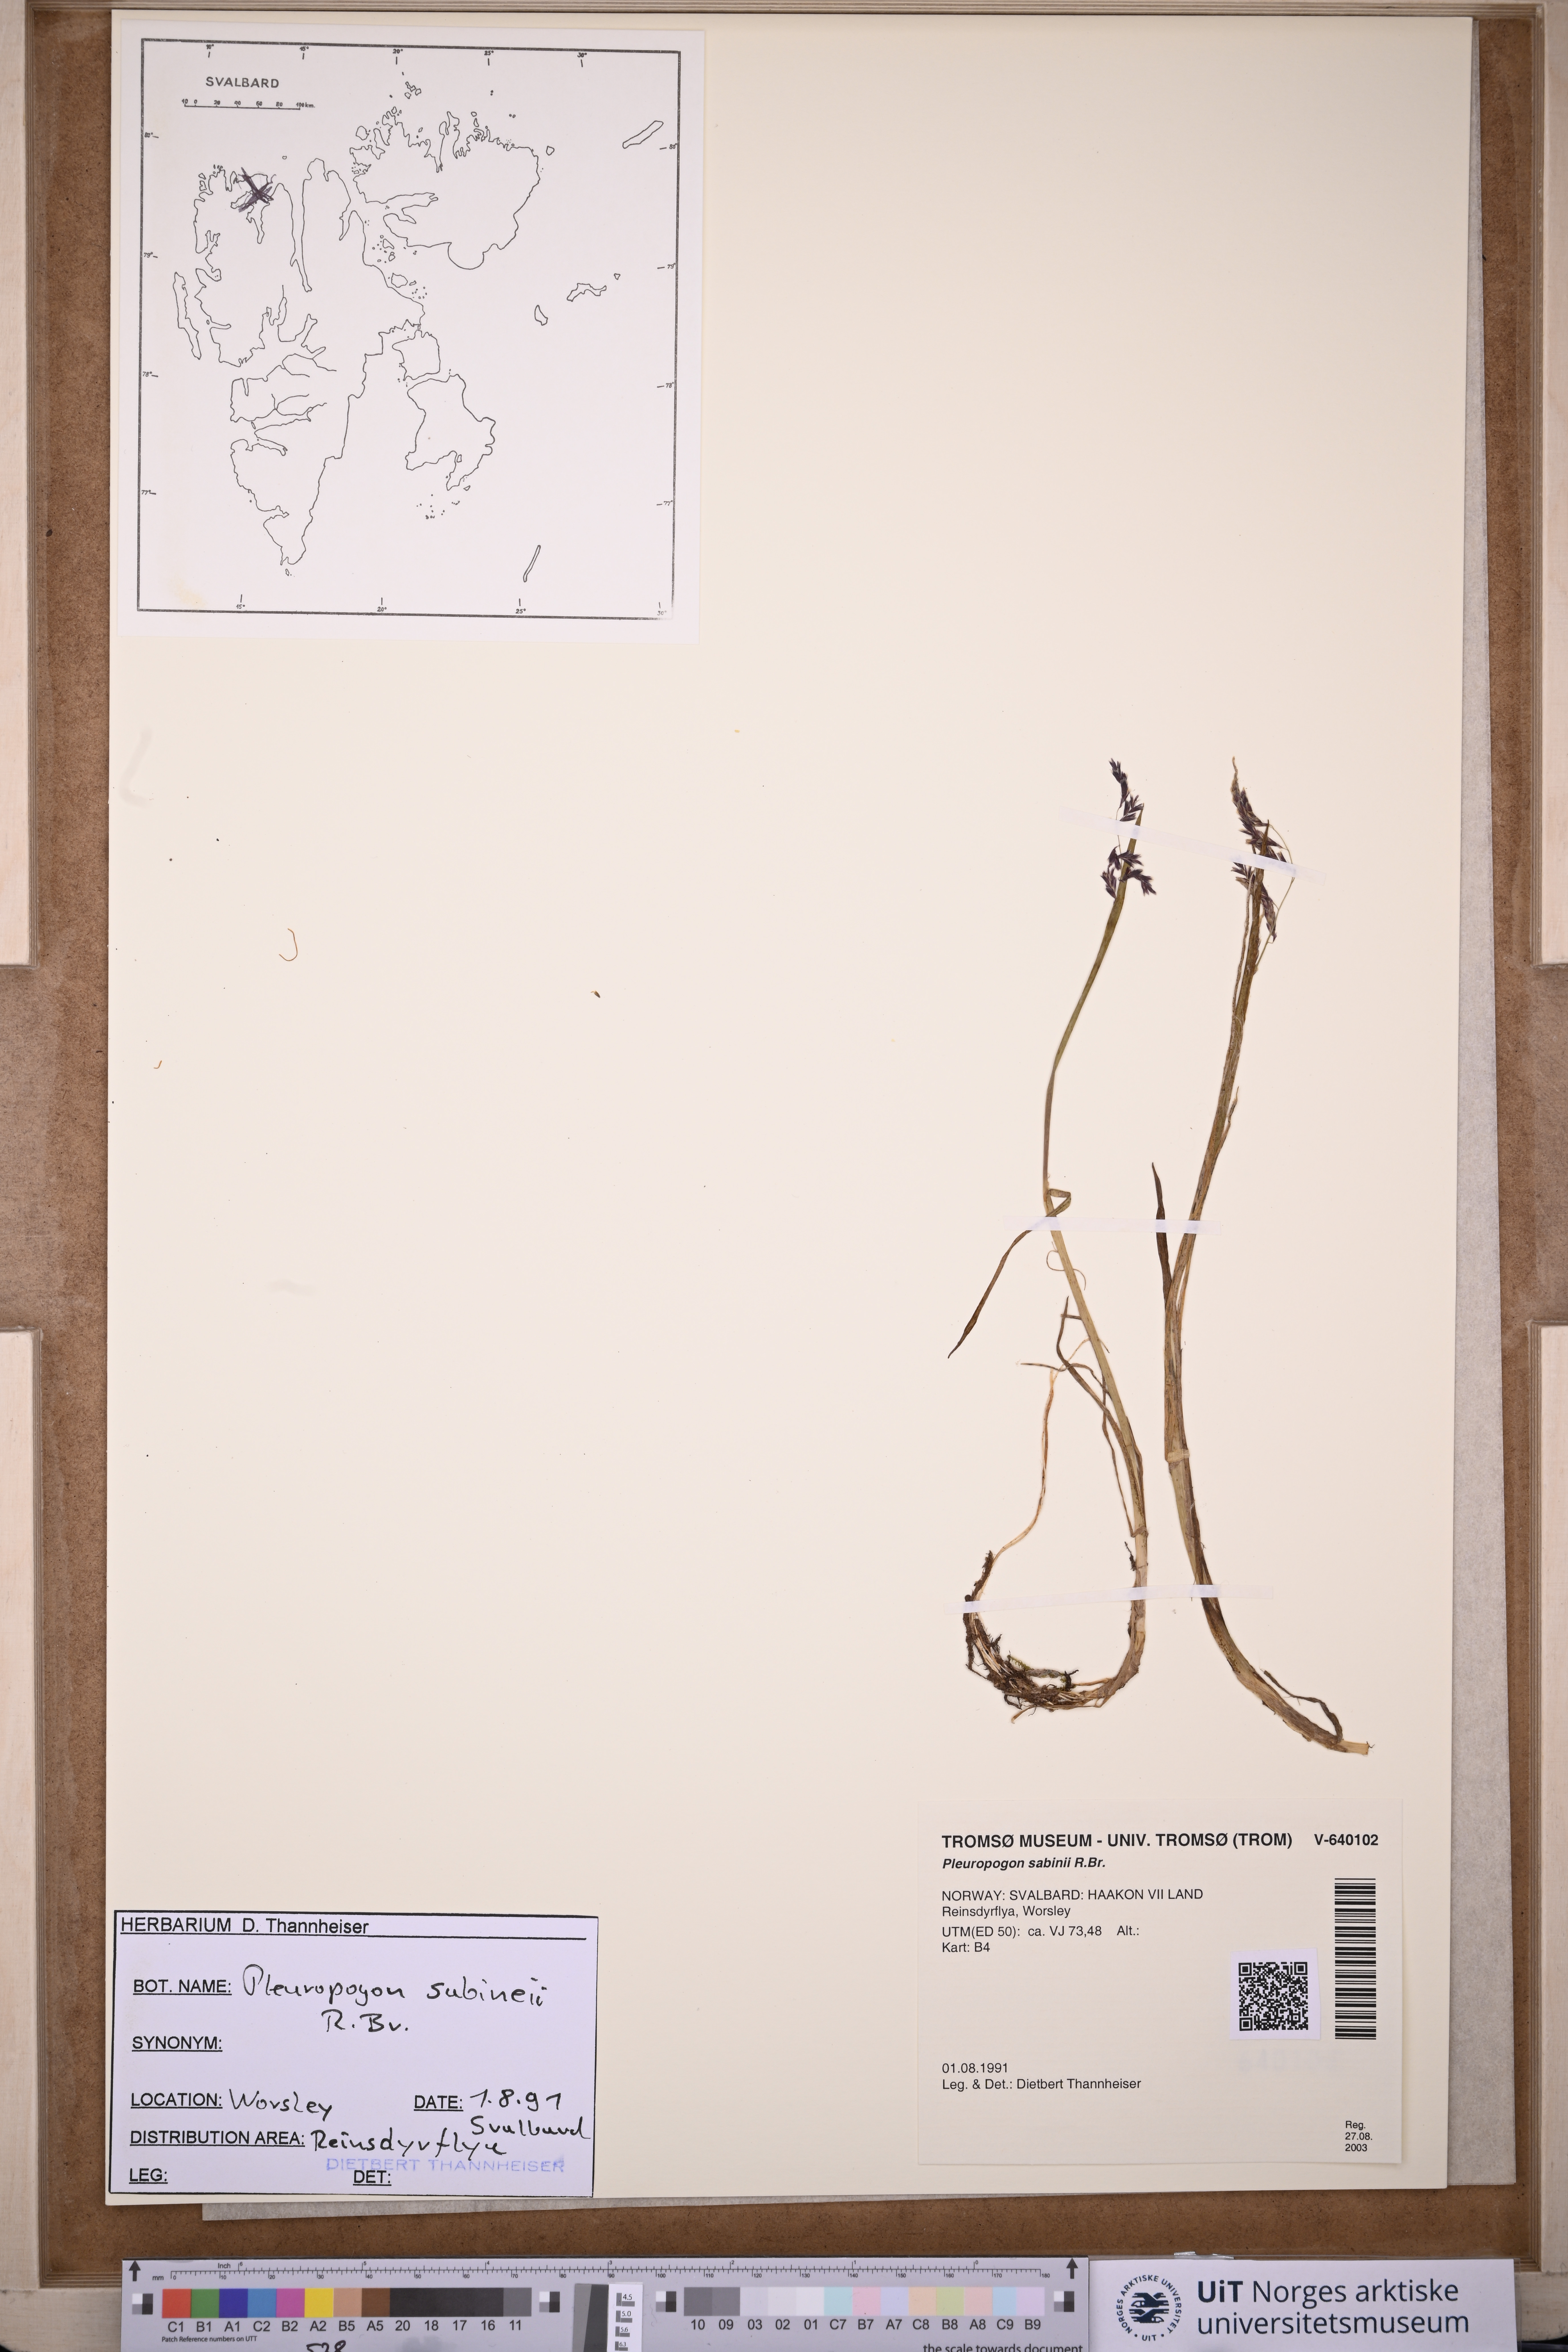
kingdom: Plantae
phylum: Tracheophyta
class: Liliopsida
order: Poales
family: Poaceae
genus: Pleuropogon
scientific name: Pleuropogon sabinei
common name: Sabine's false semaphoregrass
